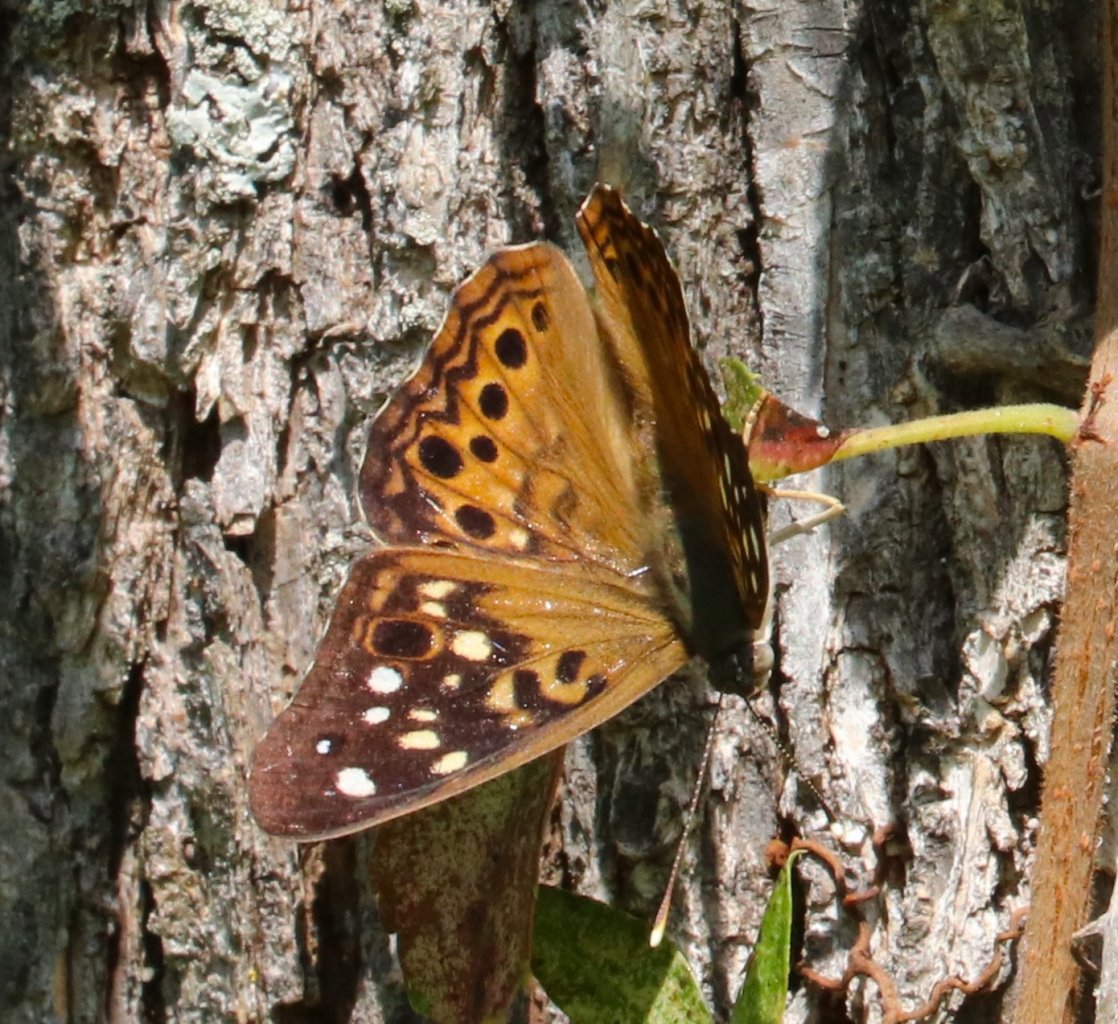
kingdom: Animalia
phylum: Arthropoda
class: Insecta
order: Lepidoptera
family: Nymphalidae
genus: Asterocampa
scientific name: Asterocampa celtis
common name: Hackberry Emperor
